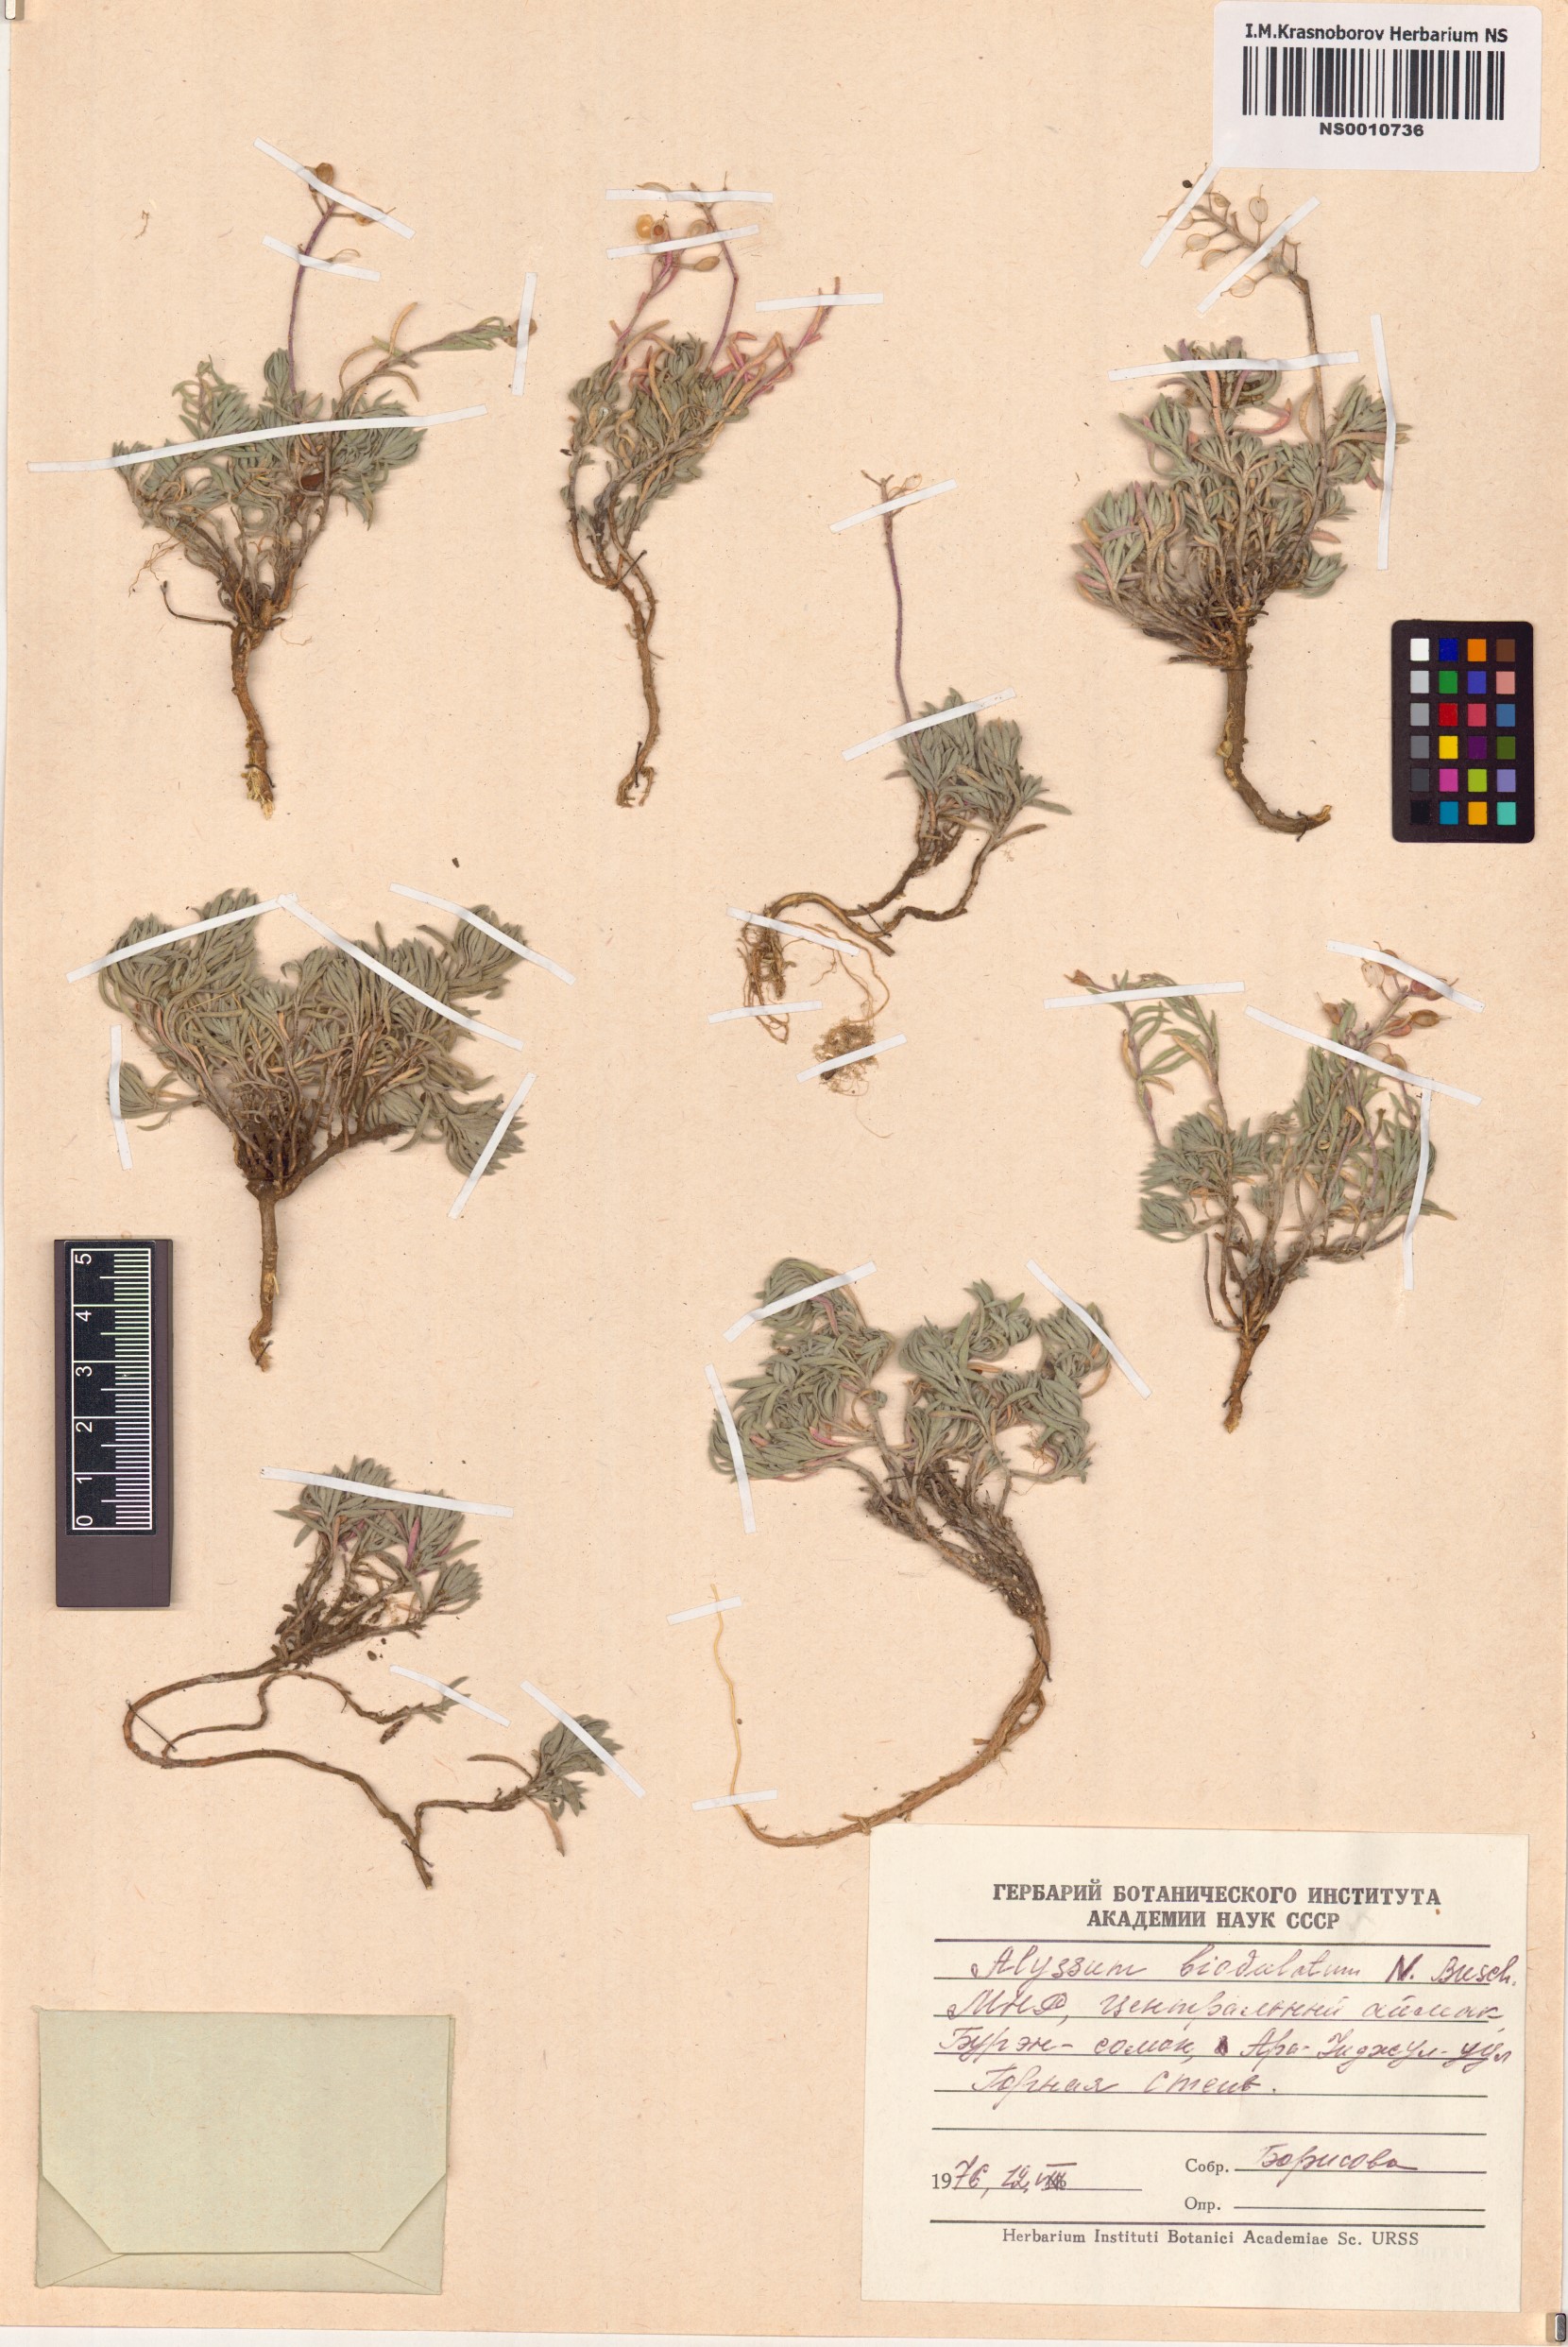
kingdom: Plantae
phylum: Tracheophyta
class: Magnoliopsida
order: Brassicales
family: Brassicaceae
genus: Odontarrhena
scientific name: Odontarrhena obovata
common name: American alyssum
